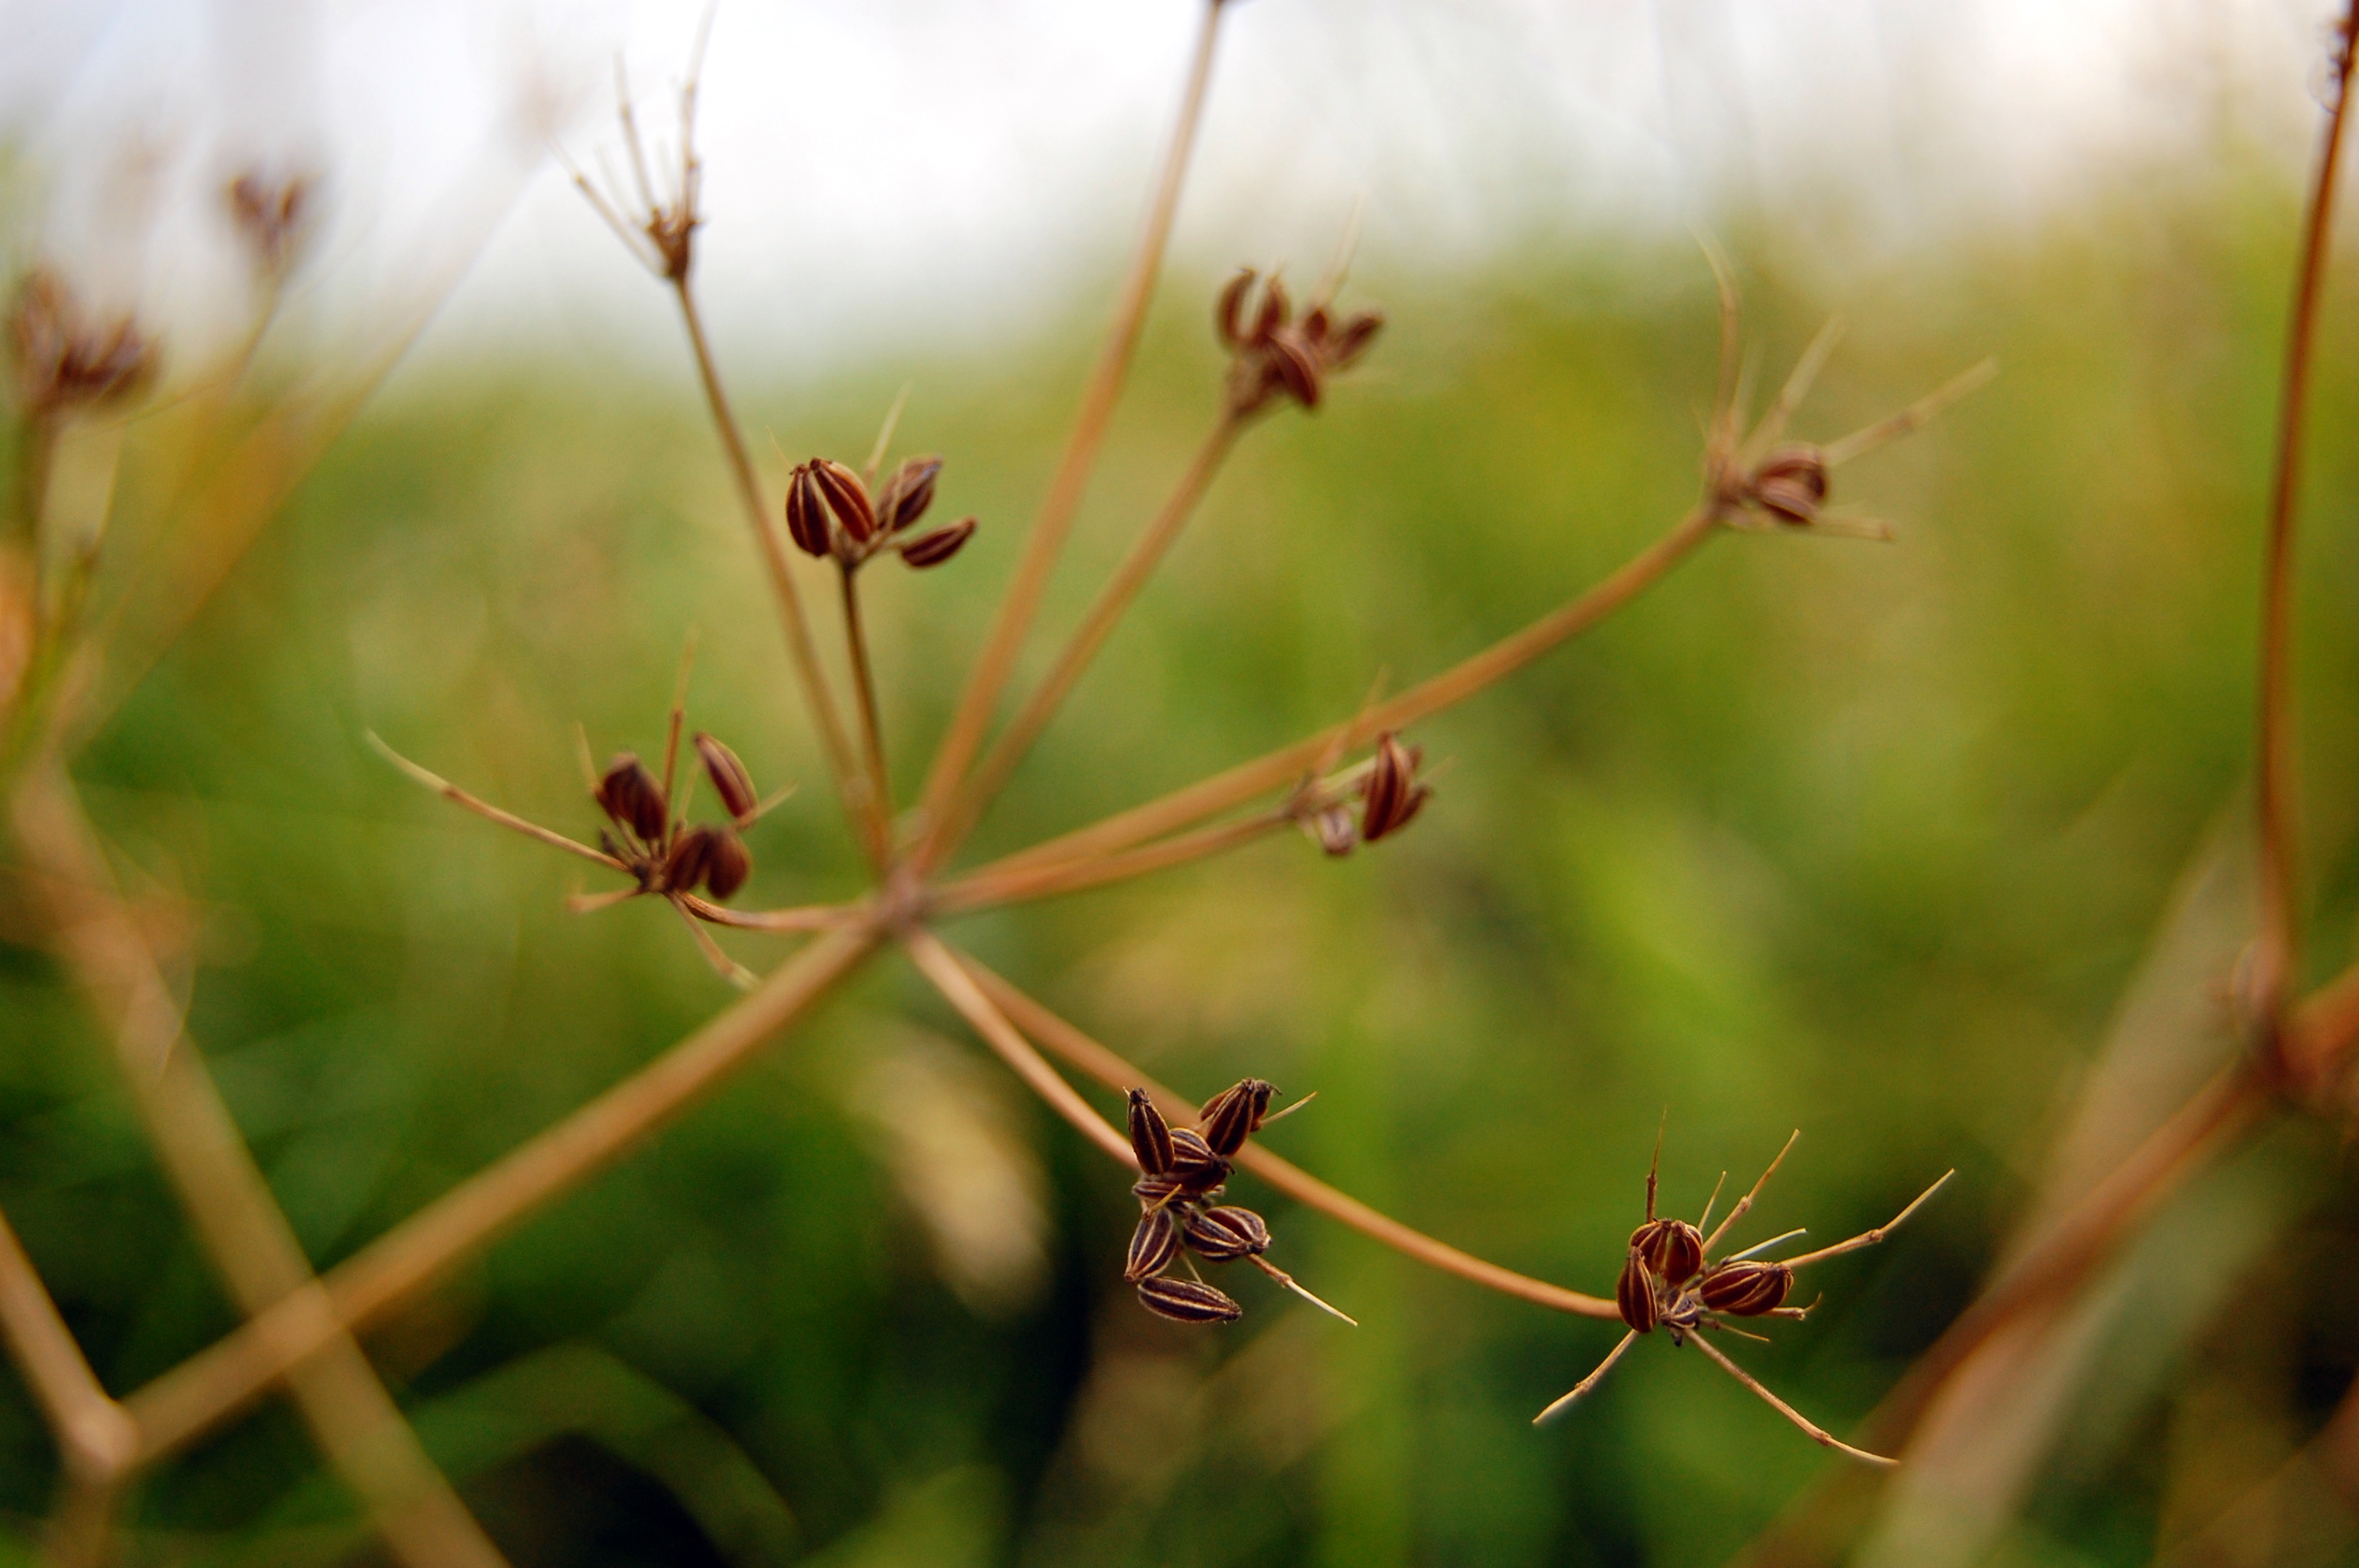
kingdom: Plantae
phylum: Tracheophyta
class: Magnoliopsida
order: Apiales
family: Apiaceae
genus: Carum
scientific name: Carum carvi
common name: Caraway
